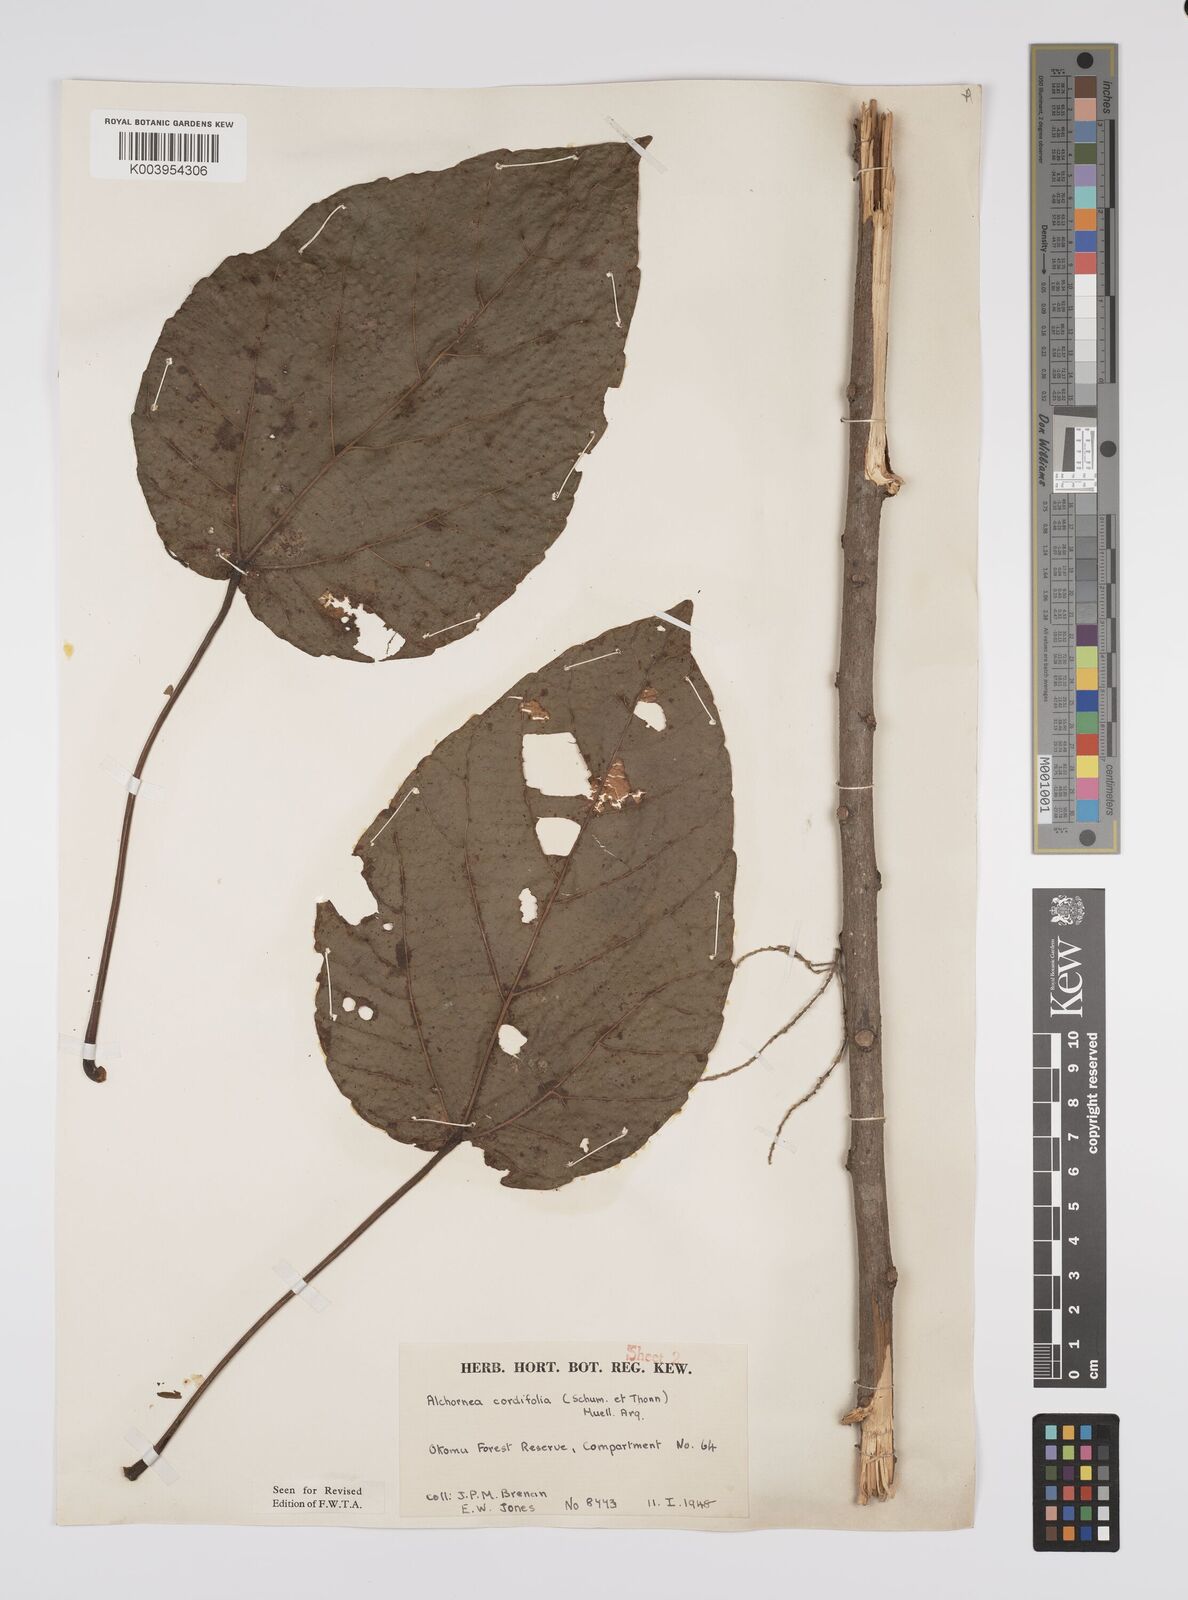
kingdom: Plantae
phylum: Tracheophyta
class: Magnoliopsida
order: Malpighiales
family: Euphorbiaceae
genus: Alchornea
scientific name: Alchornea cordifolia
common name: Christmasbush
